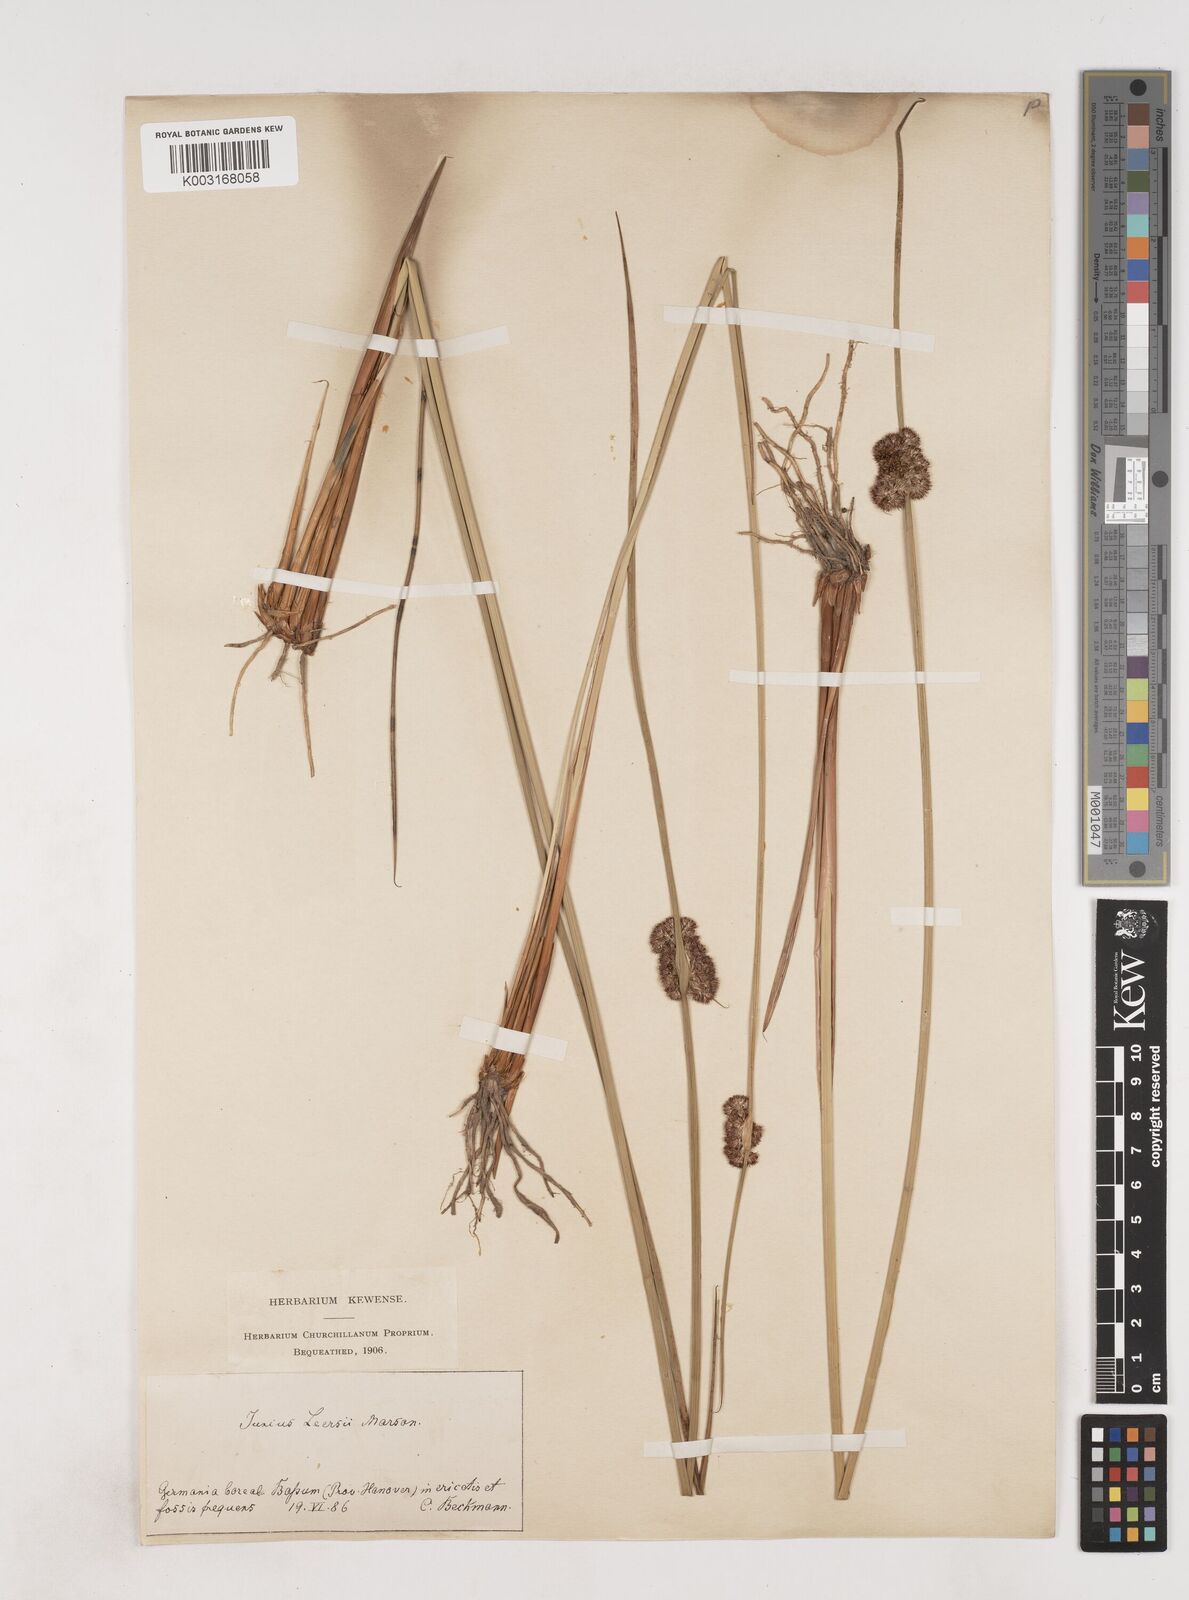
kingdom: Plantae
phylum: Tracheophyta
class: Liliopsida
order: Poales
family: Juncaceae
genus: Juncus
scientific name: Juncus conglomeratus
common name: Compact rush
